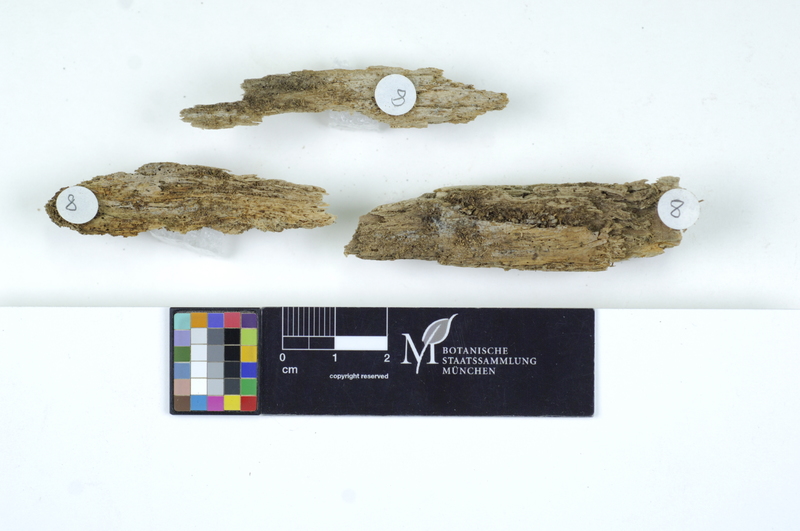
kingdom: Fungi
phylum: Basidiomycota
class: Agaricomycetes
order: Auriculariales
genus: Basidiodendron
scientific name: Basidiodendron cinereum
